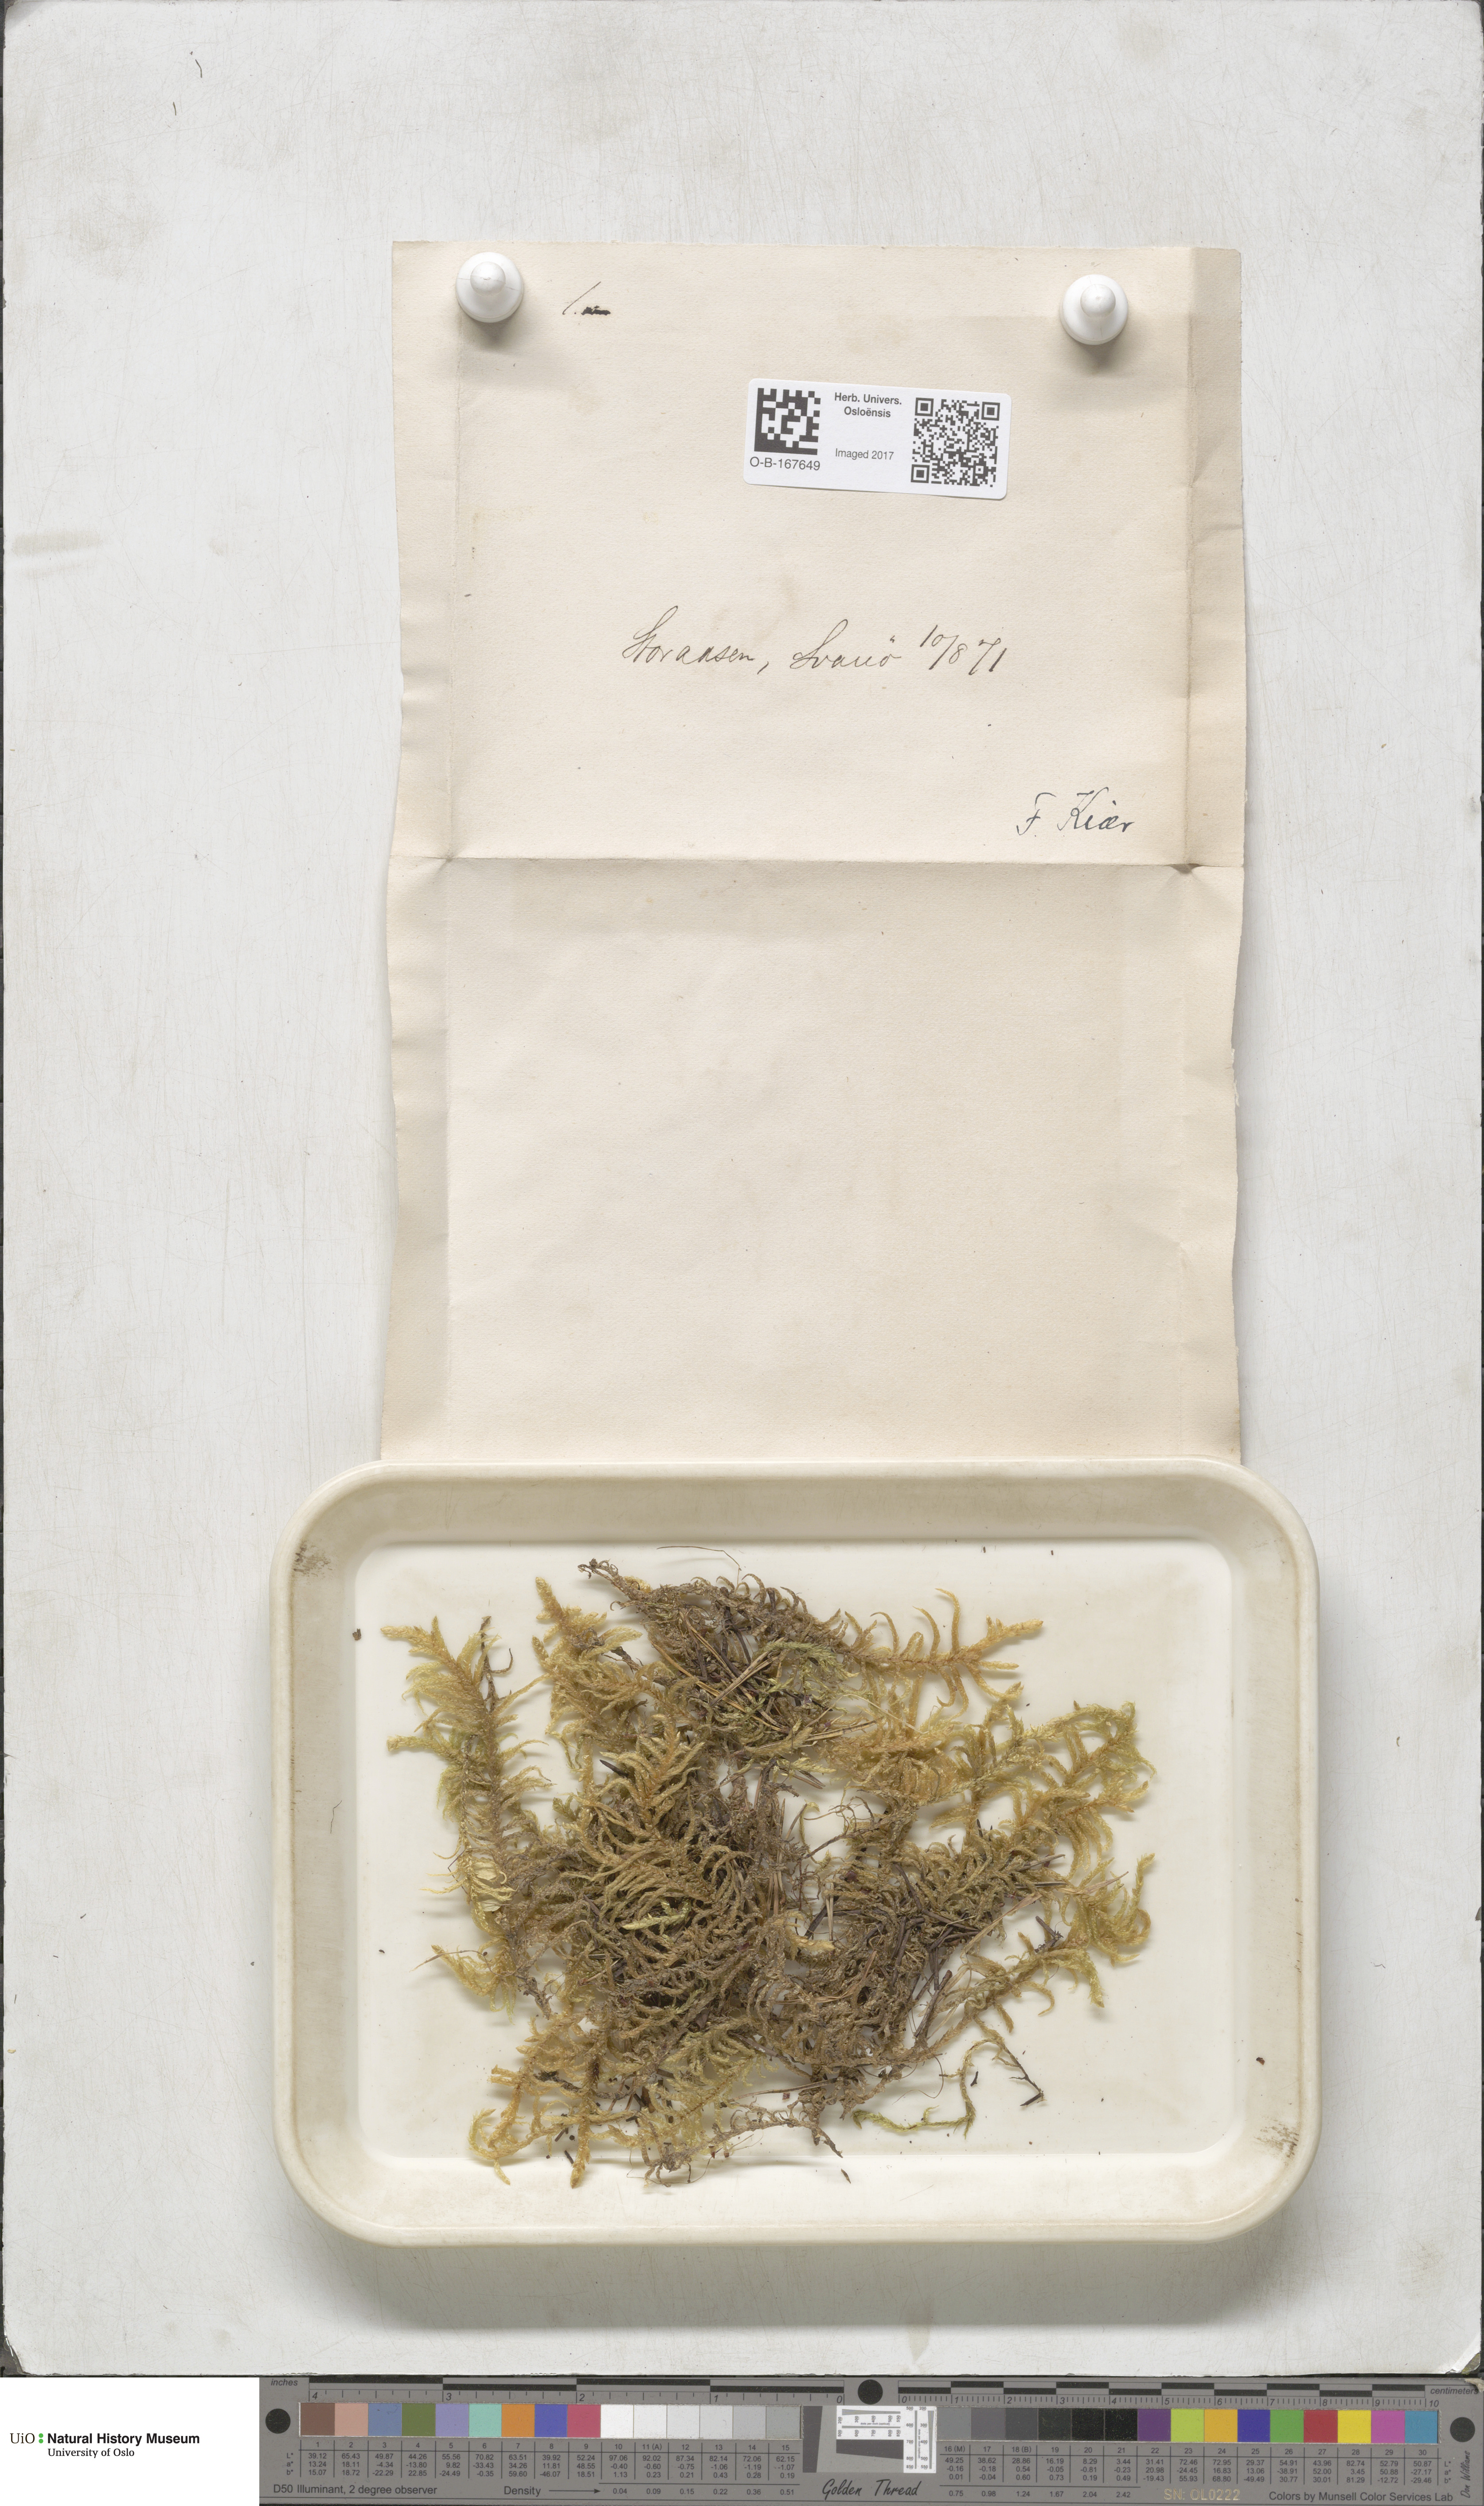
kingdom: Plantae
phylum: Bryophyta
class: Bryopsida
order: Hypnales
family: Brachytheciaceae
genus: Pseudoscleropodium
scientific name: Pseudoscleropodium purum
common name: Neat feather-moss
